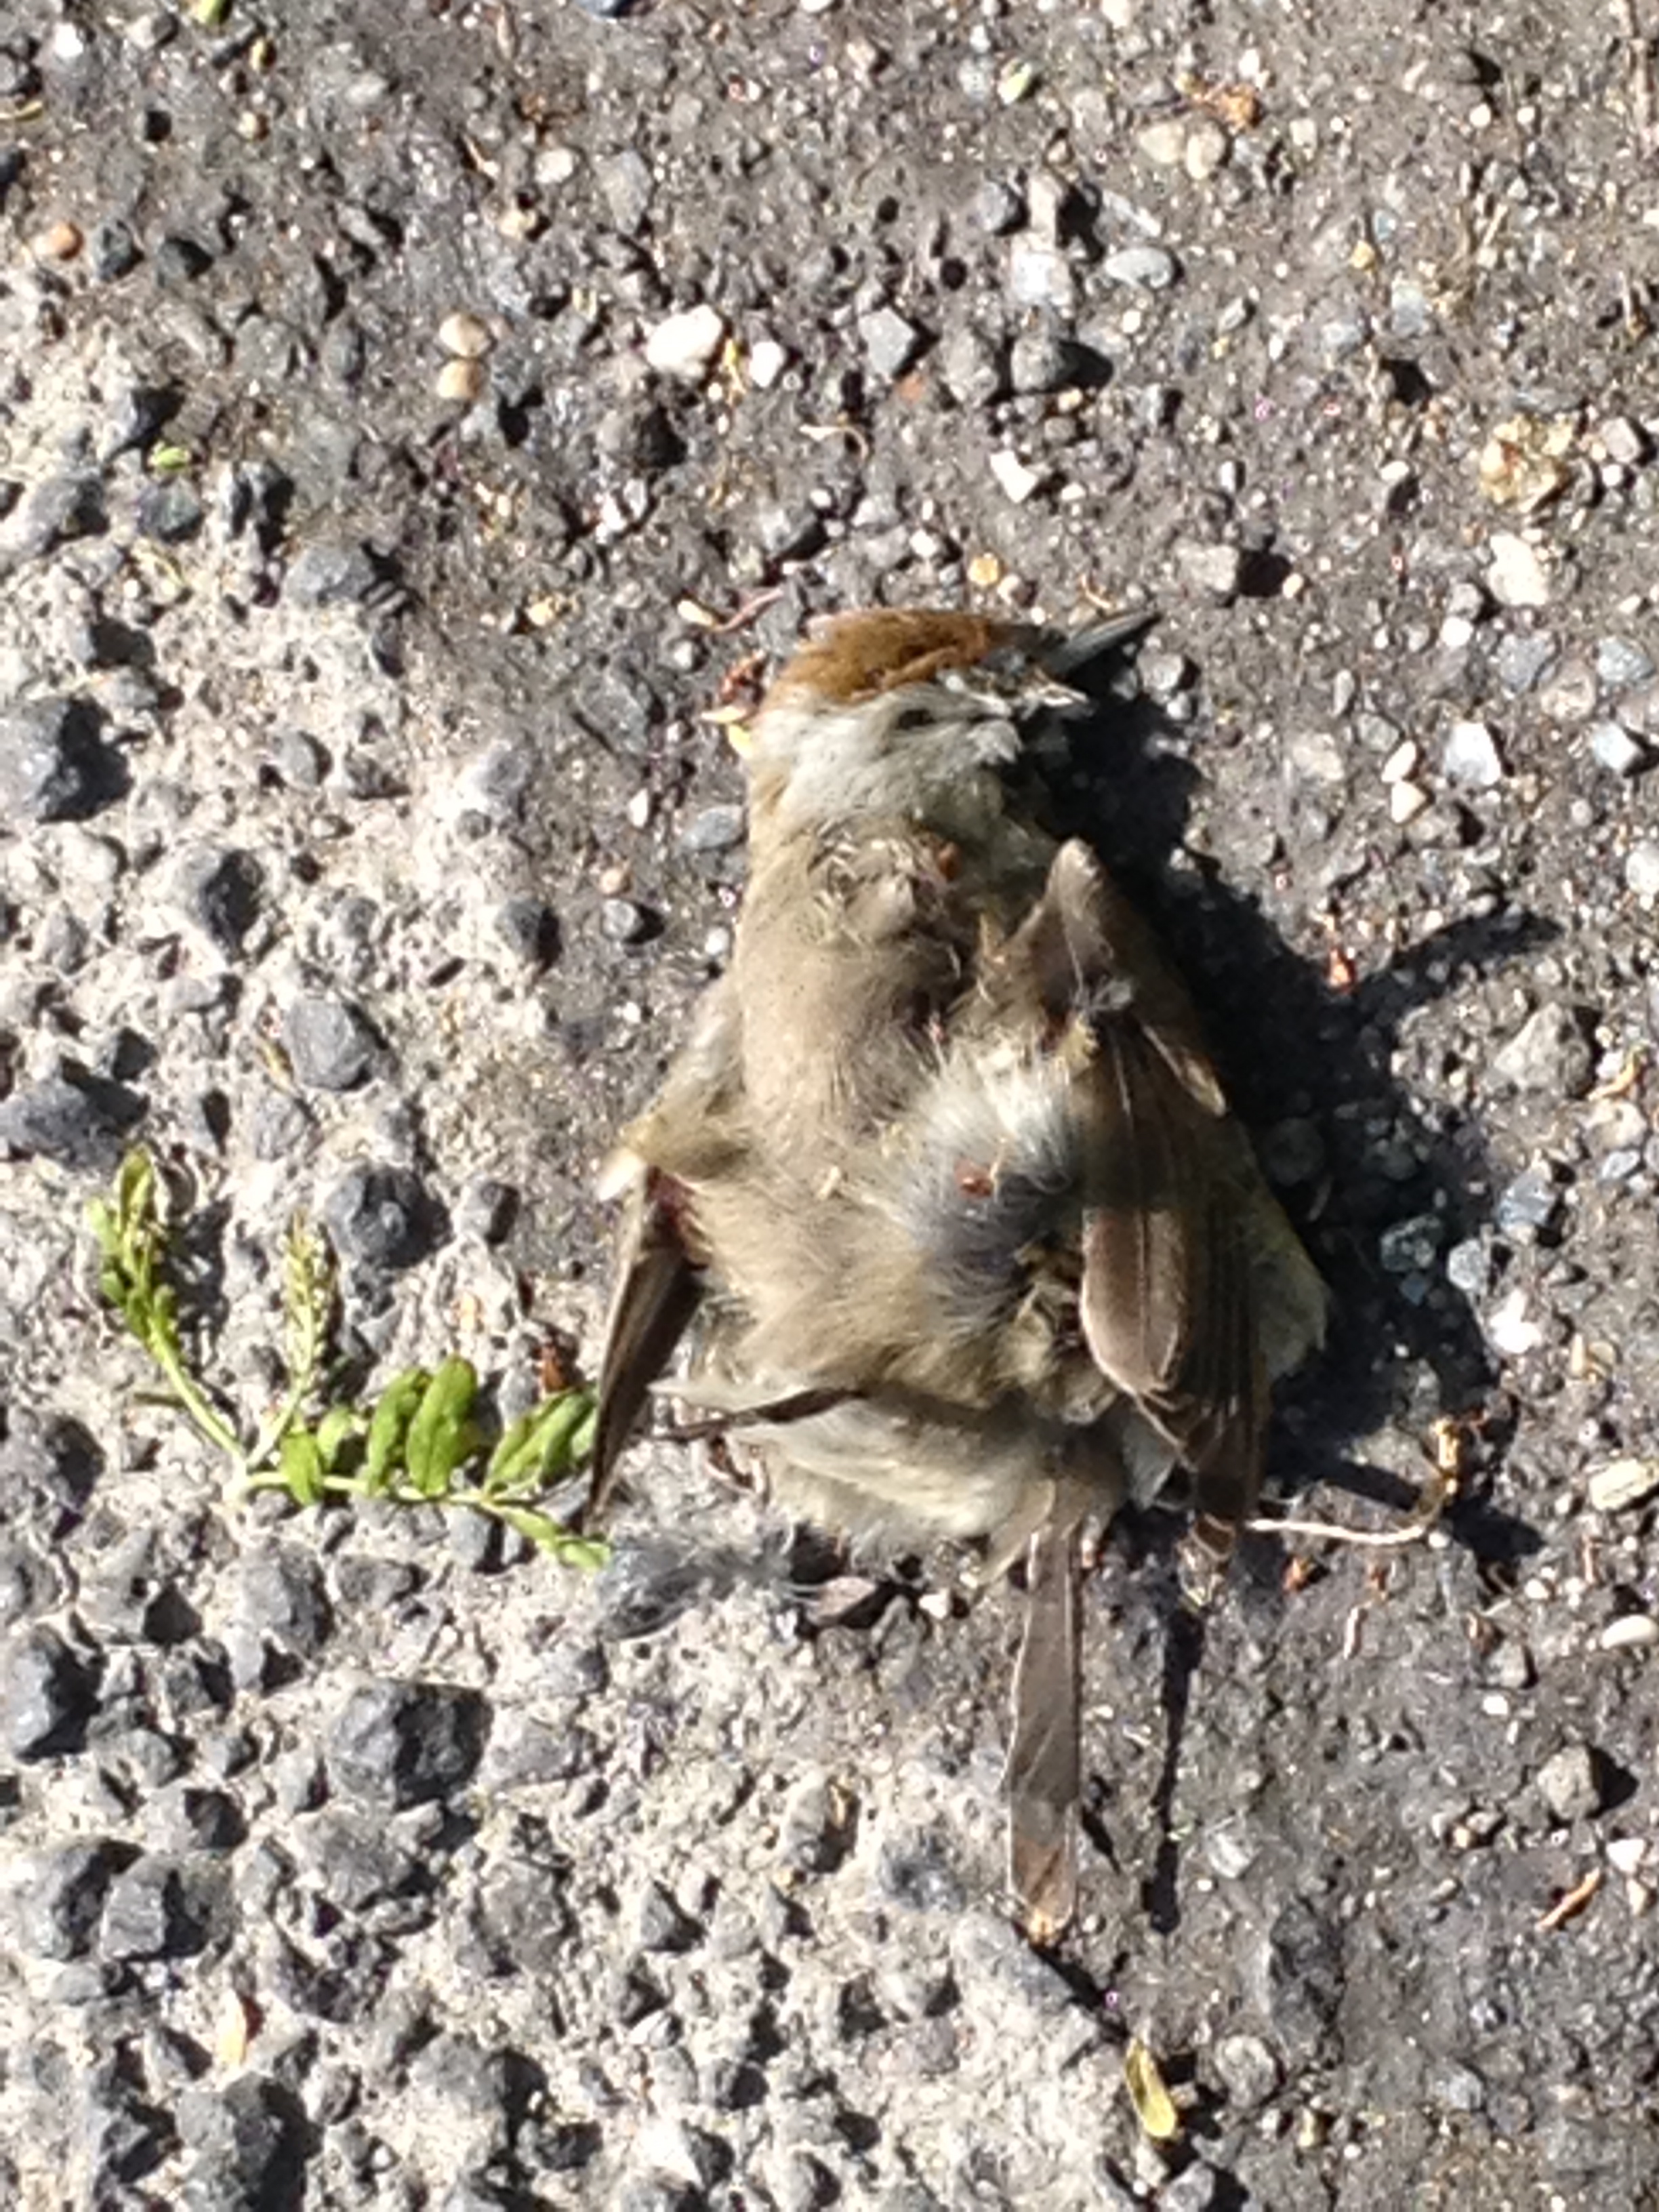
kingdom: Animalia
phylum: Chordata
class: Aves
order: Passeriformes
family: Sylviidae
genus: Sylvia
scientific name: Sylvia atricapilla
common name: Eurasian blackcap
